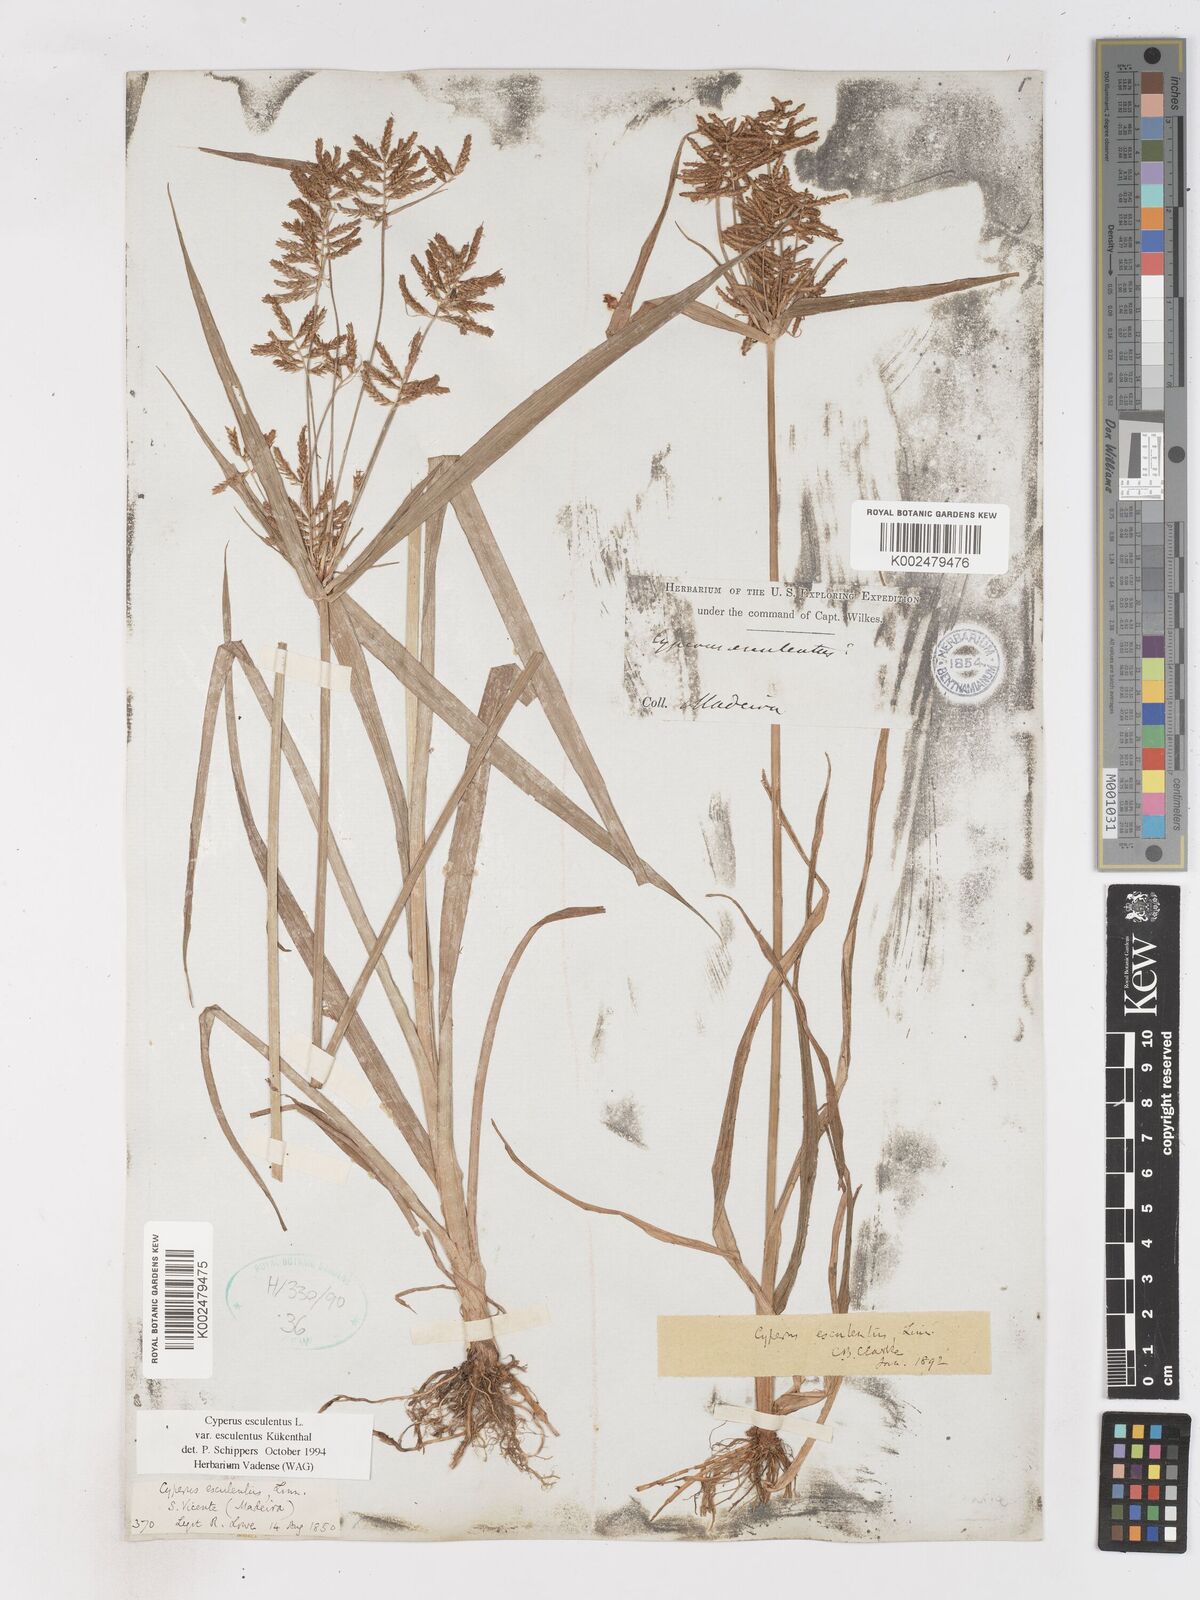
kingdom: Plantae
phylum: Tracheophyta
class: Liliopsida
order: Poales
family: Cyperaceae
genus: Cyperus
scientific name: Cyperus esculentus
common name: Yellow nutsedge
